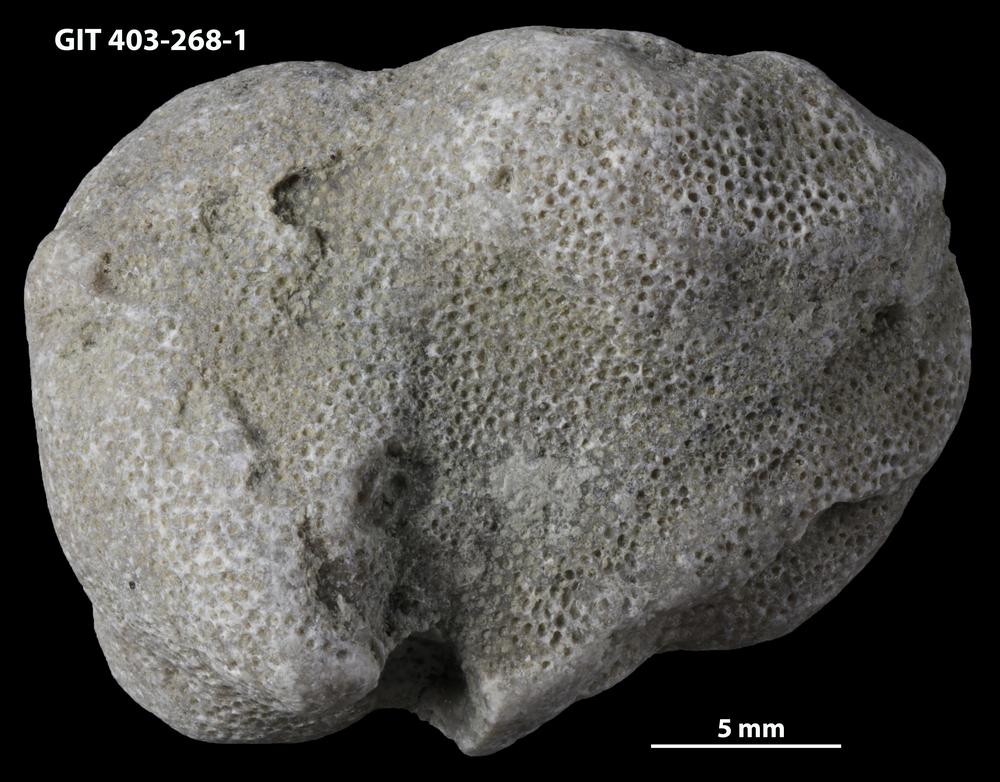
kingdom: Animalia
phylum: Bryozoa
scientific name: Bryozoa
